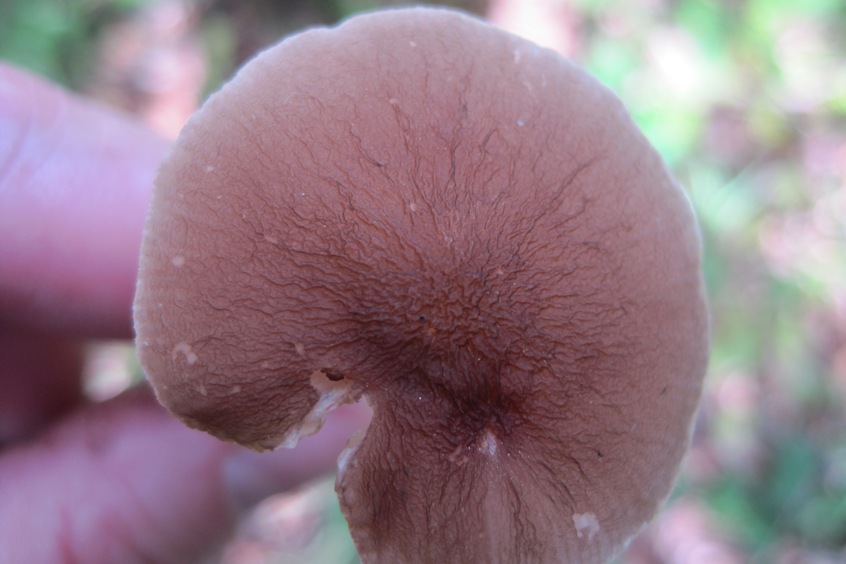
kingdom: Fungi
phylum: Basidiomycota
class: Agaricomycetes
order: Agaricales
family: Pluteaceae
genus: Pluteus
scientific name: Pluteus phlebophorus
